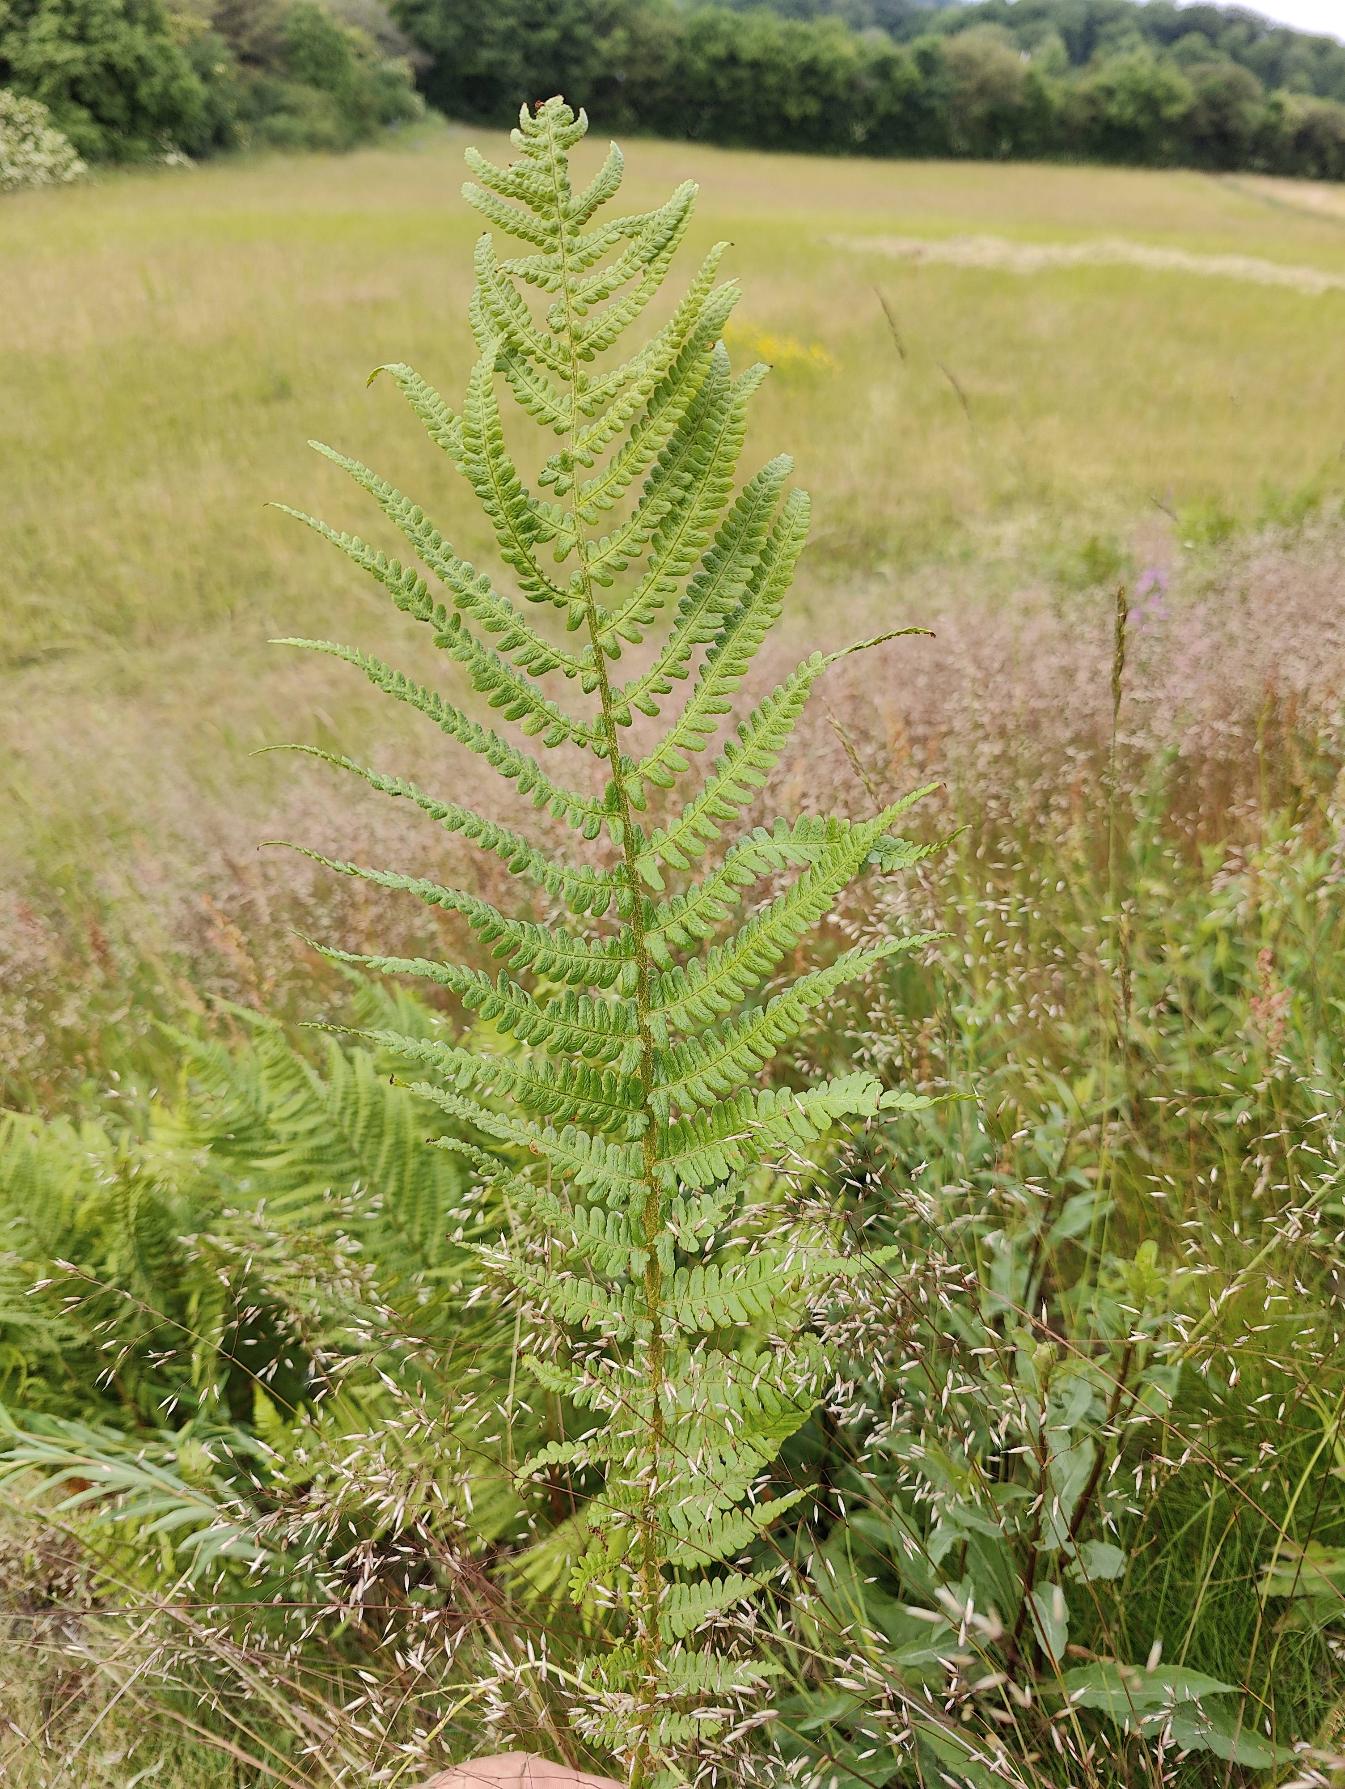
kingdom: Plantae
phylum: Tracheophyta
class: Polypodiopsida
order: Polypodiales
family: Dryopteridaceae
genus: Dryopteris
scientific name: Dryopteris filix-mas
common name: Almindelig mangeløv
